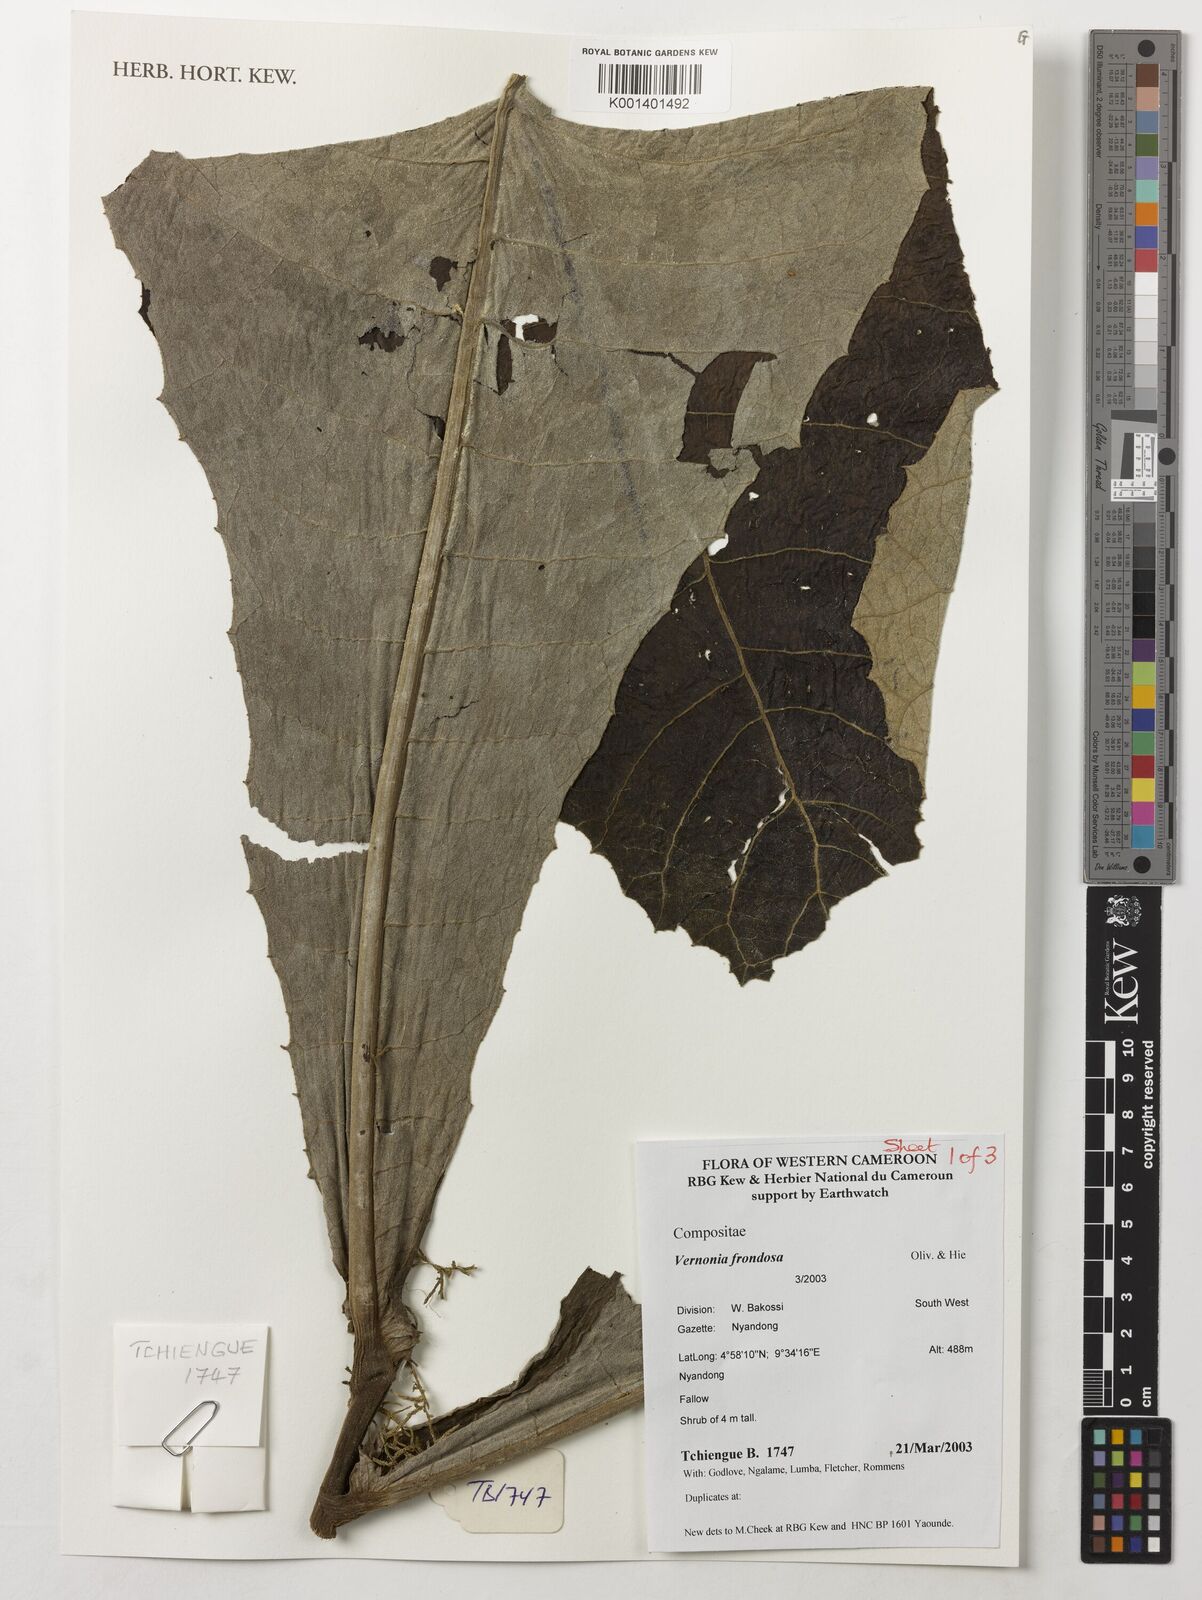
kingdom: Plantae
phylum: Tracheophyta
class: Magnoliopsida
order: Asterales
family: Asteraceae
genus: Brenandendron
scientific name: Brenandendron frondosum
